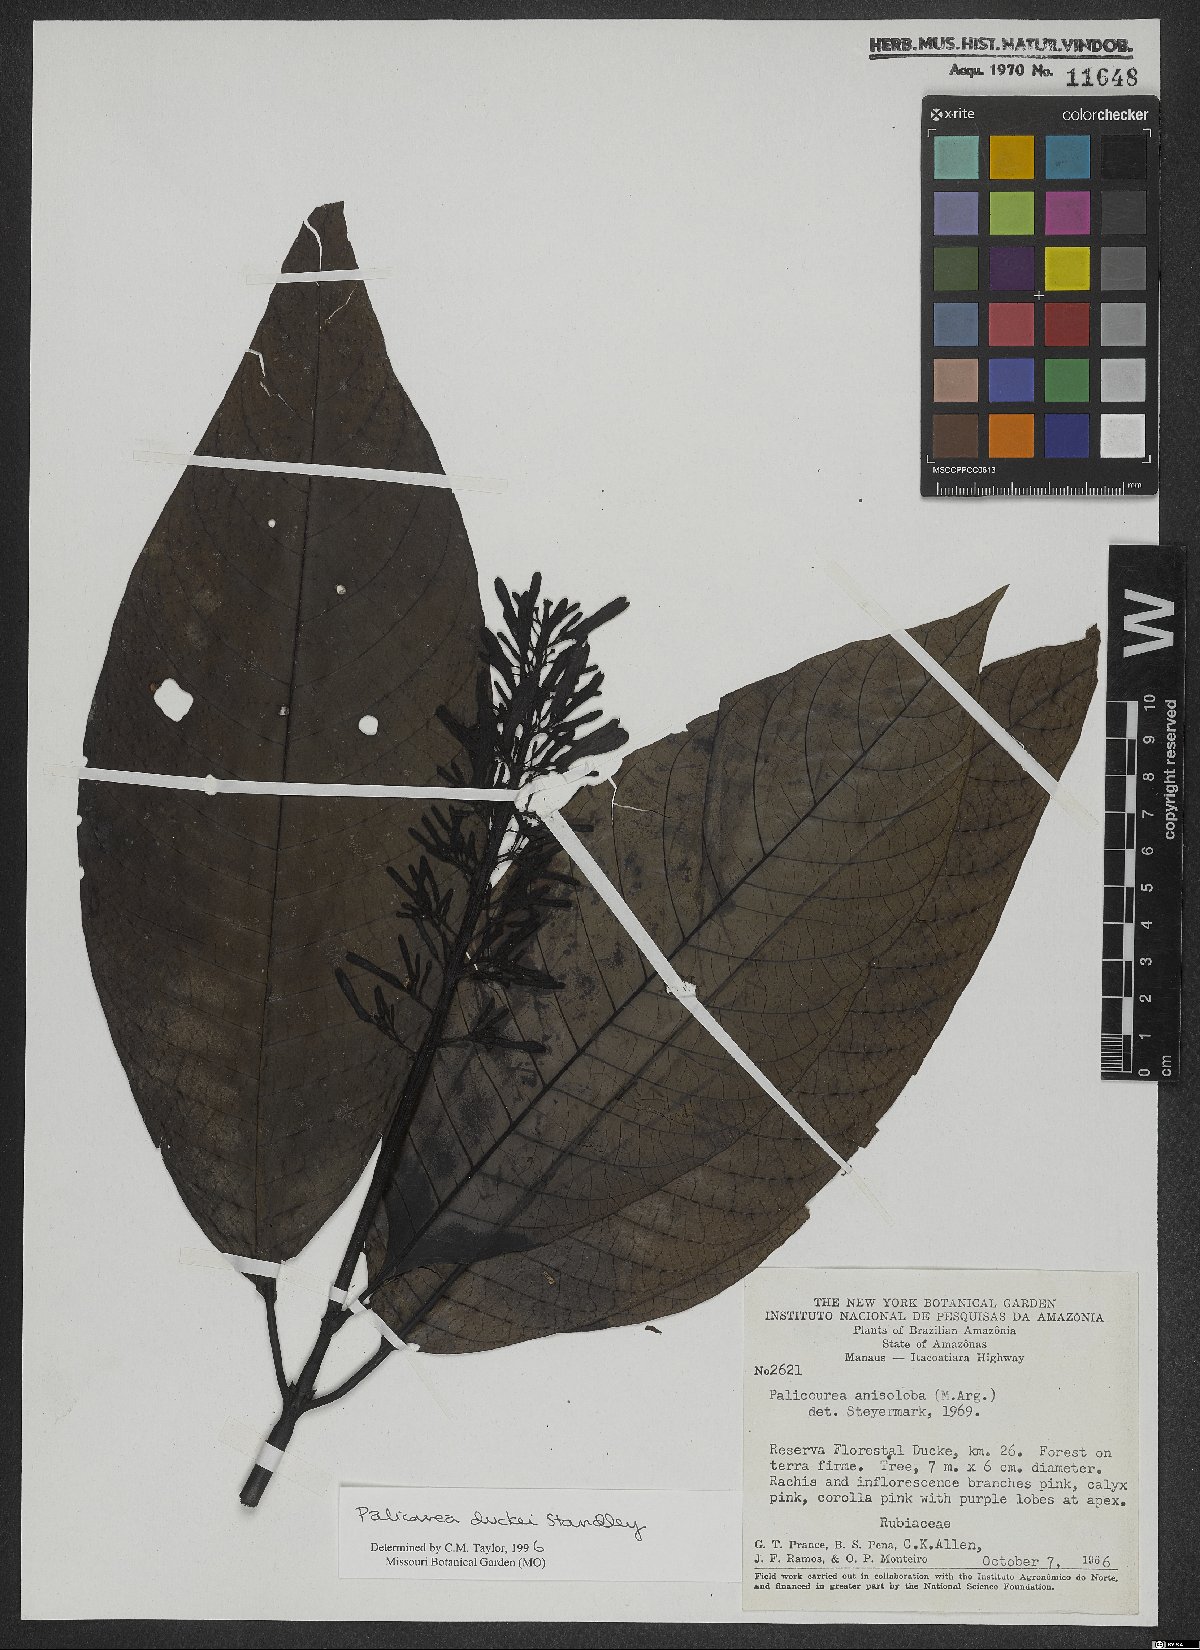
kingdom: Plantae
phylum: Tracheophyta
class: Magnoliopsida
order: Gentianales
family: Rubiaceae
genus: Palicourea
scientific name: Palicourea duckei
